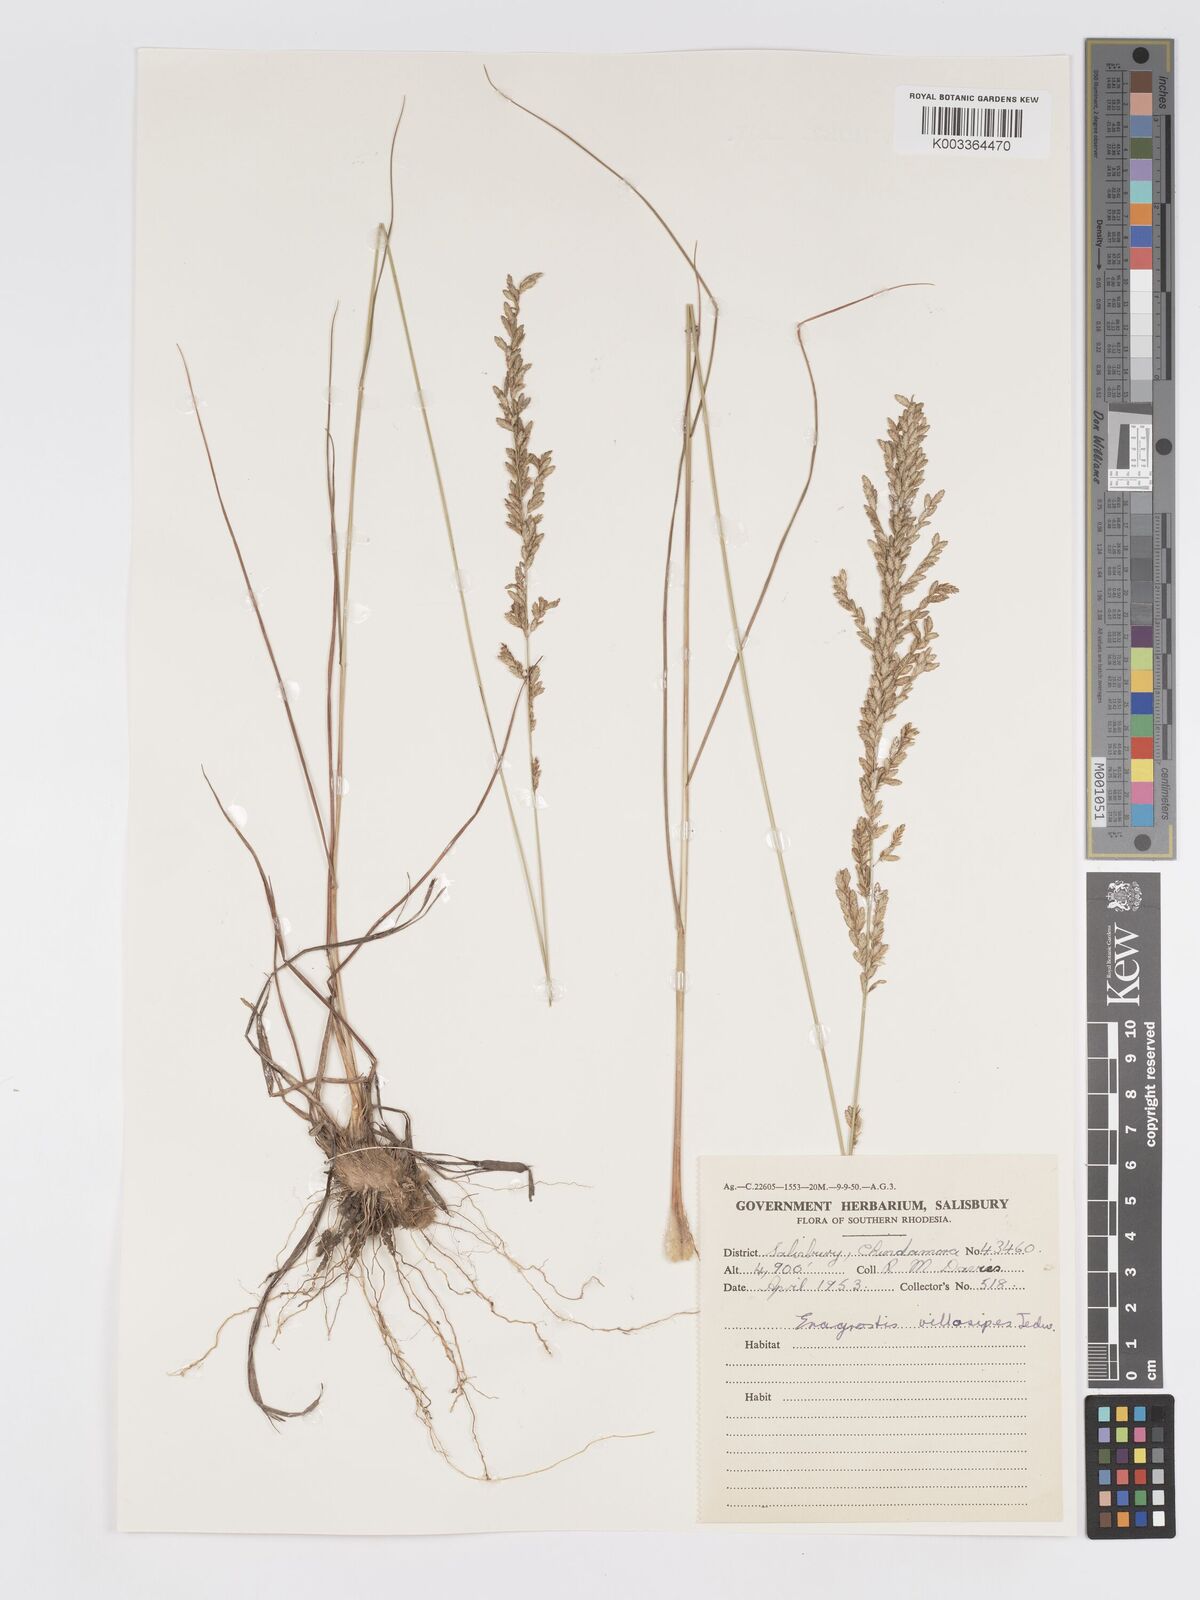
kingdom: Plantae
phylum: Tracheophyta
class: Liliopsida
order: Poales
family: Poaceae
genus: Eragrostis
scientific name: Eragrostis sclerantha
